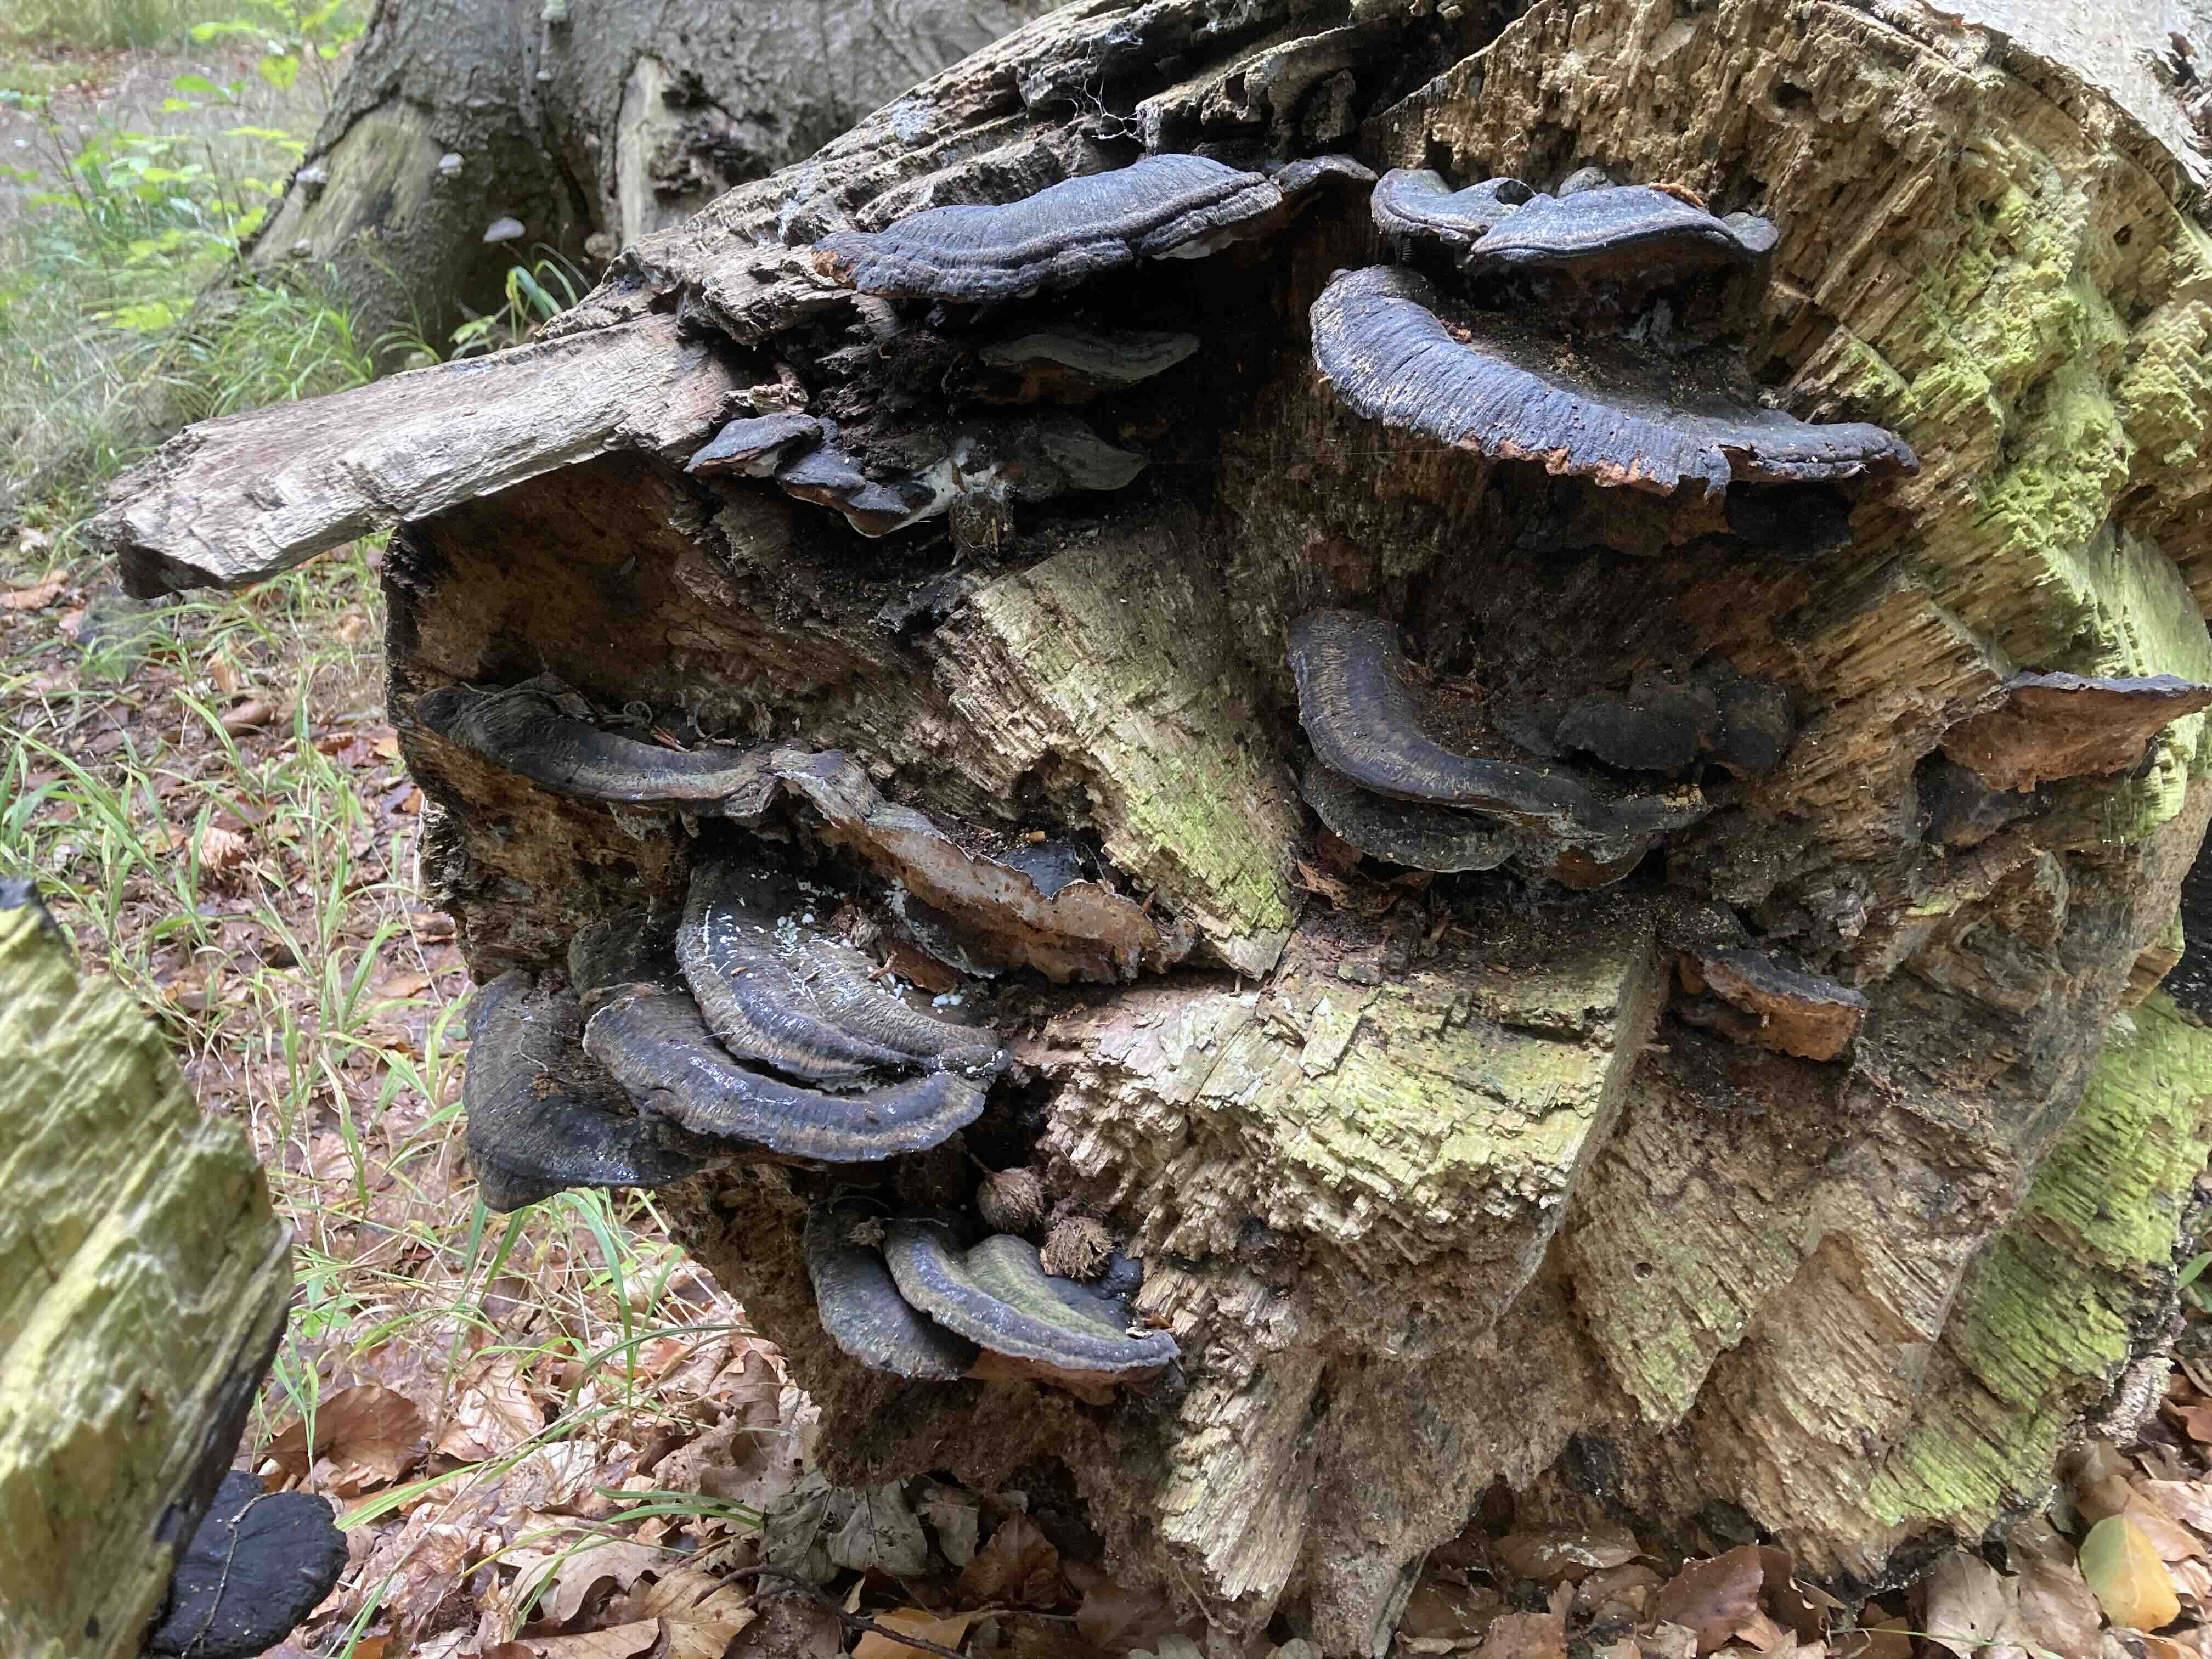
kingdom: Fungi
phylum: Basidiomycota
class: Agaricomycetes
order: Polyporales
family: Ischnodermataceae
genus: Ischnoderma
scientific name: Ischnoderma resinosum
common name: løv-tjæreporesvamp
